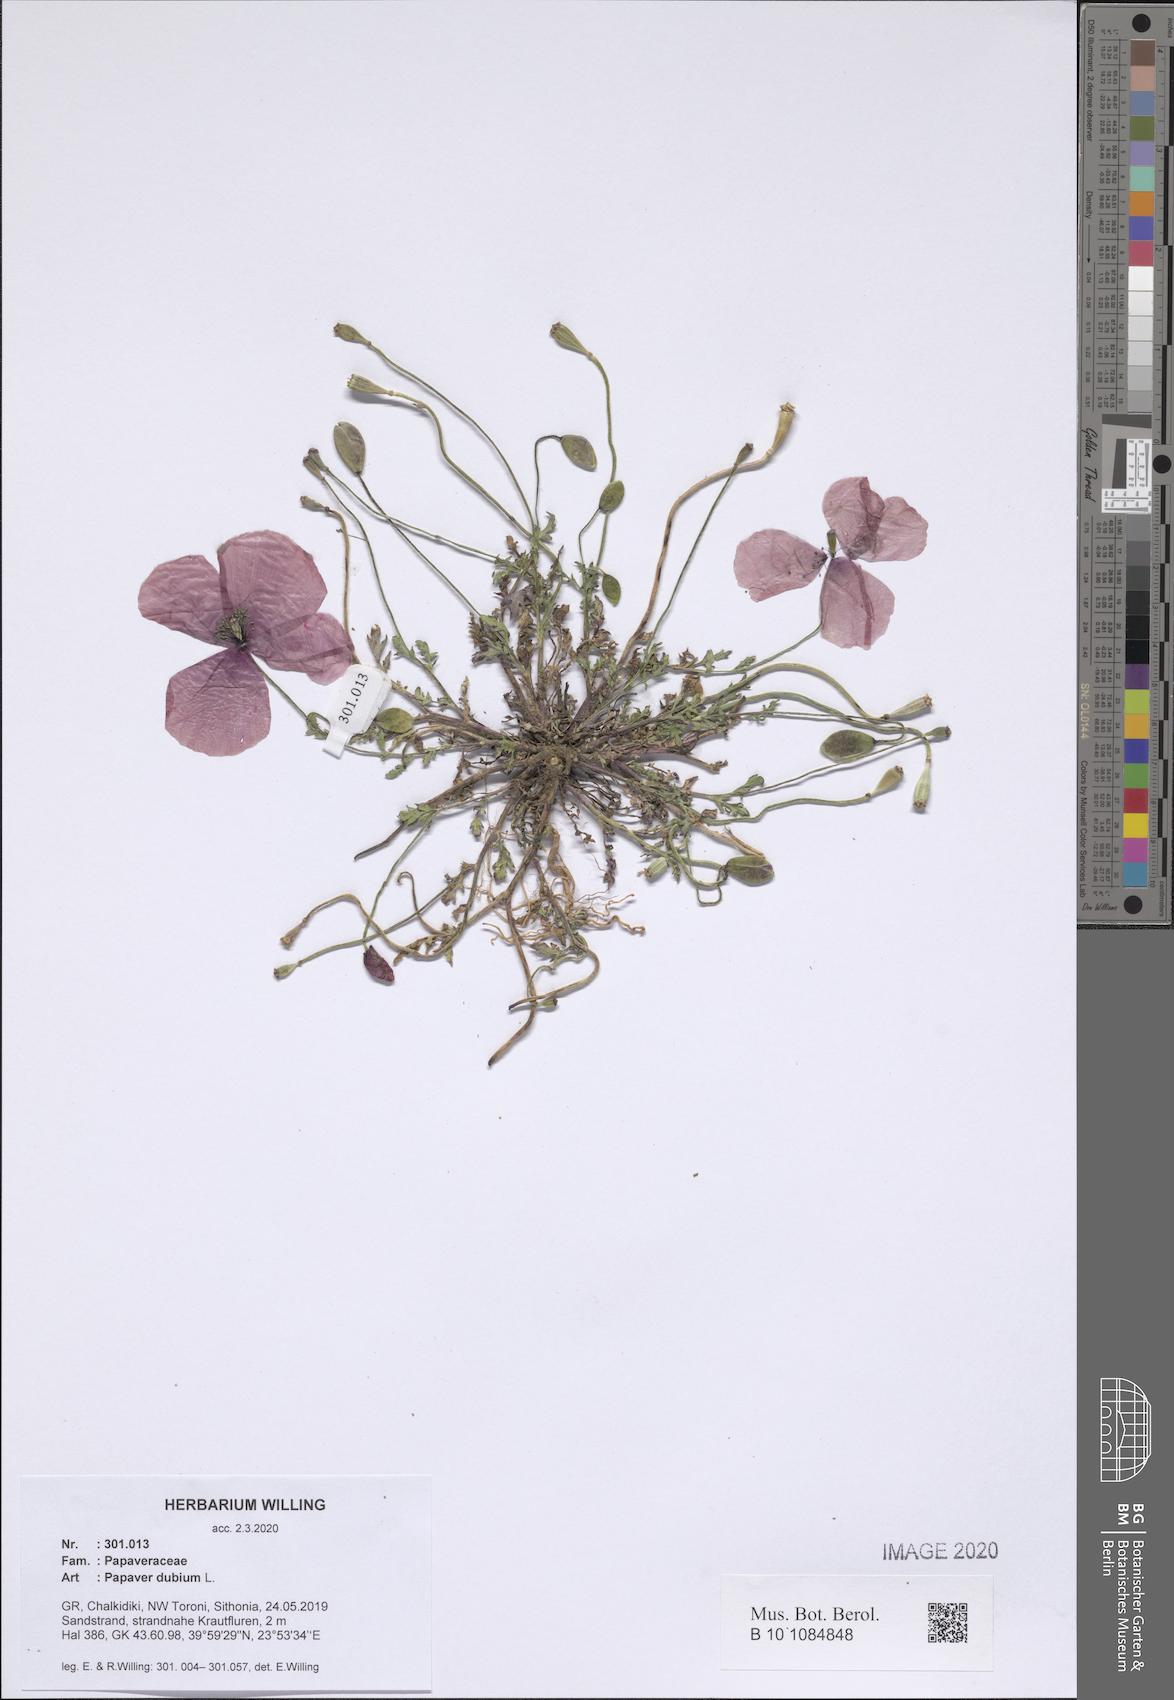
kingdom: Plantae
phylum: Tracheophyta
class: Magnoliopsida
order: Ranunculales
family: Papaveraceae
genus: Papaver
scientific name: Papaver dubium
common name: Long-headed poppy
